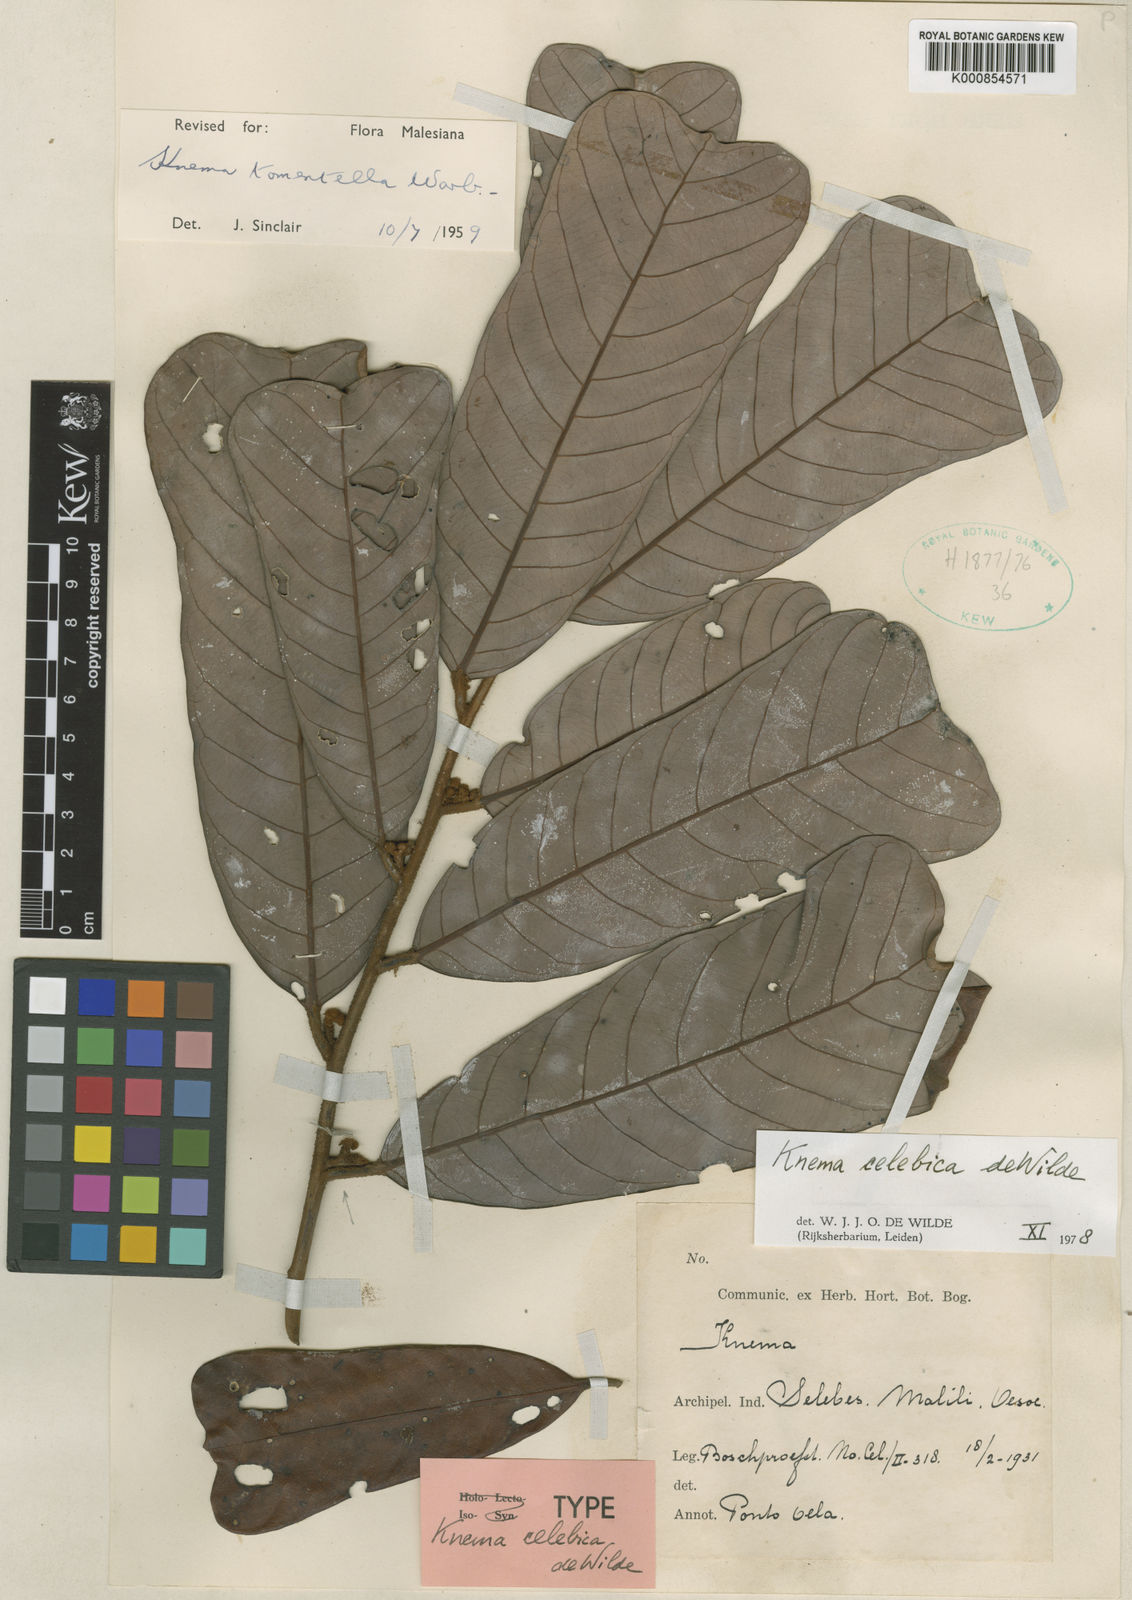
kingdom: Plantae
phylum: Tracheophyta
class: Magnoliopsida
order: Magnoliales
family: Myristicaceae
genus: Knema
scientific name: Knema celebica
